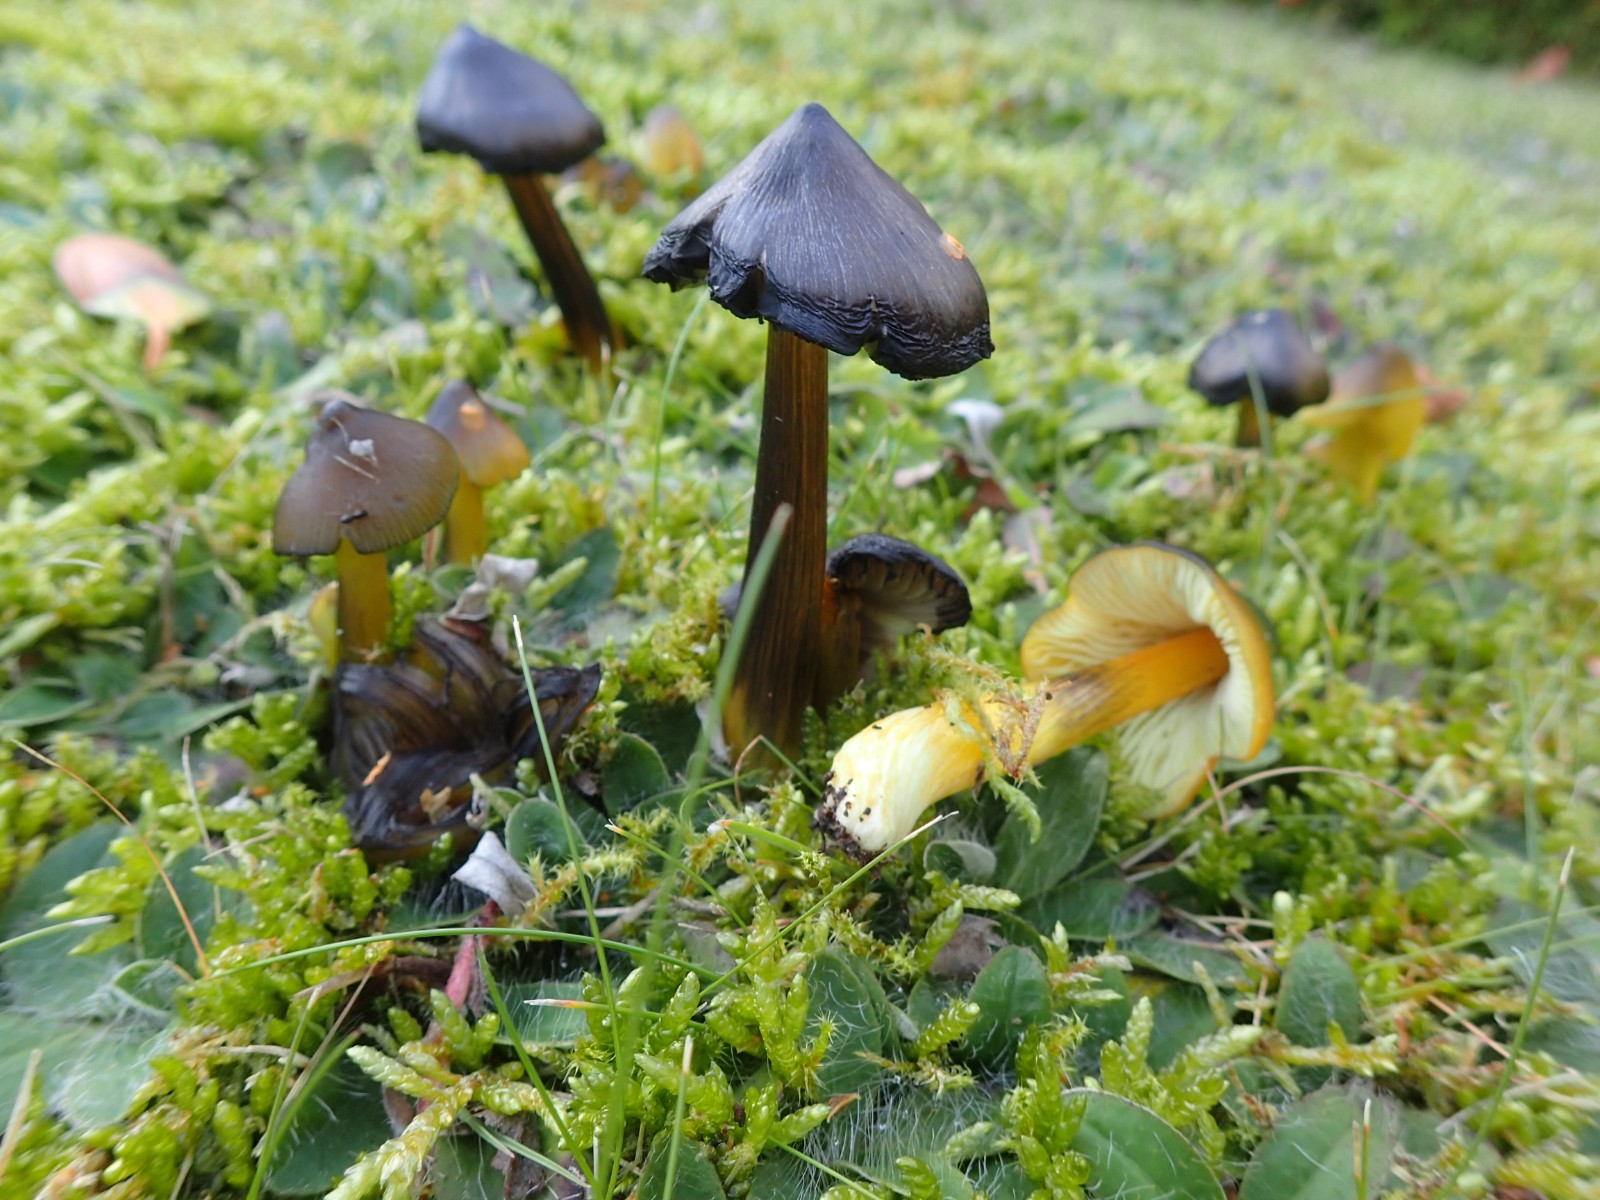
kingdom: Fungi
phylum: Basidiomycota
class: Agaricomycetes
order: Agaricales
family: Hygrophoraceae
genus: Hygrocybe
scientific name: Hygrocybe conica
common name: kegle-vokshat
